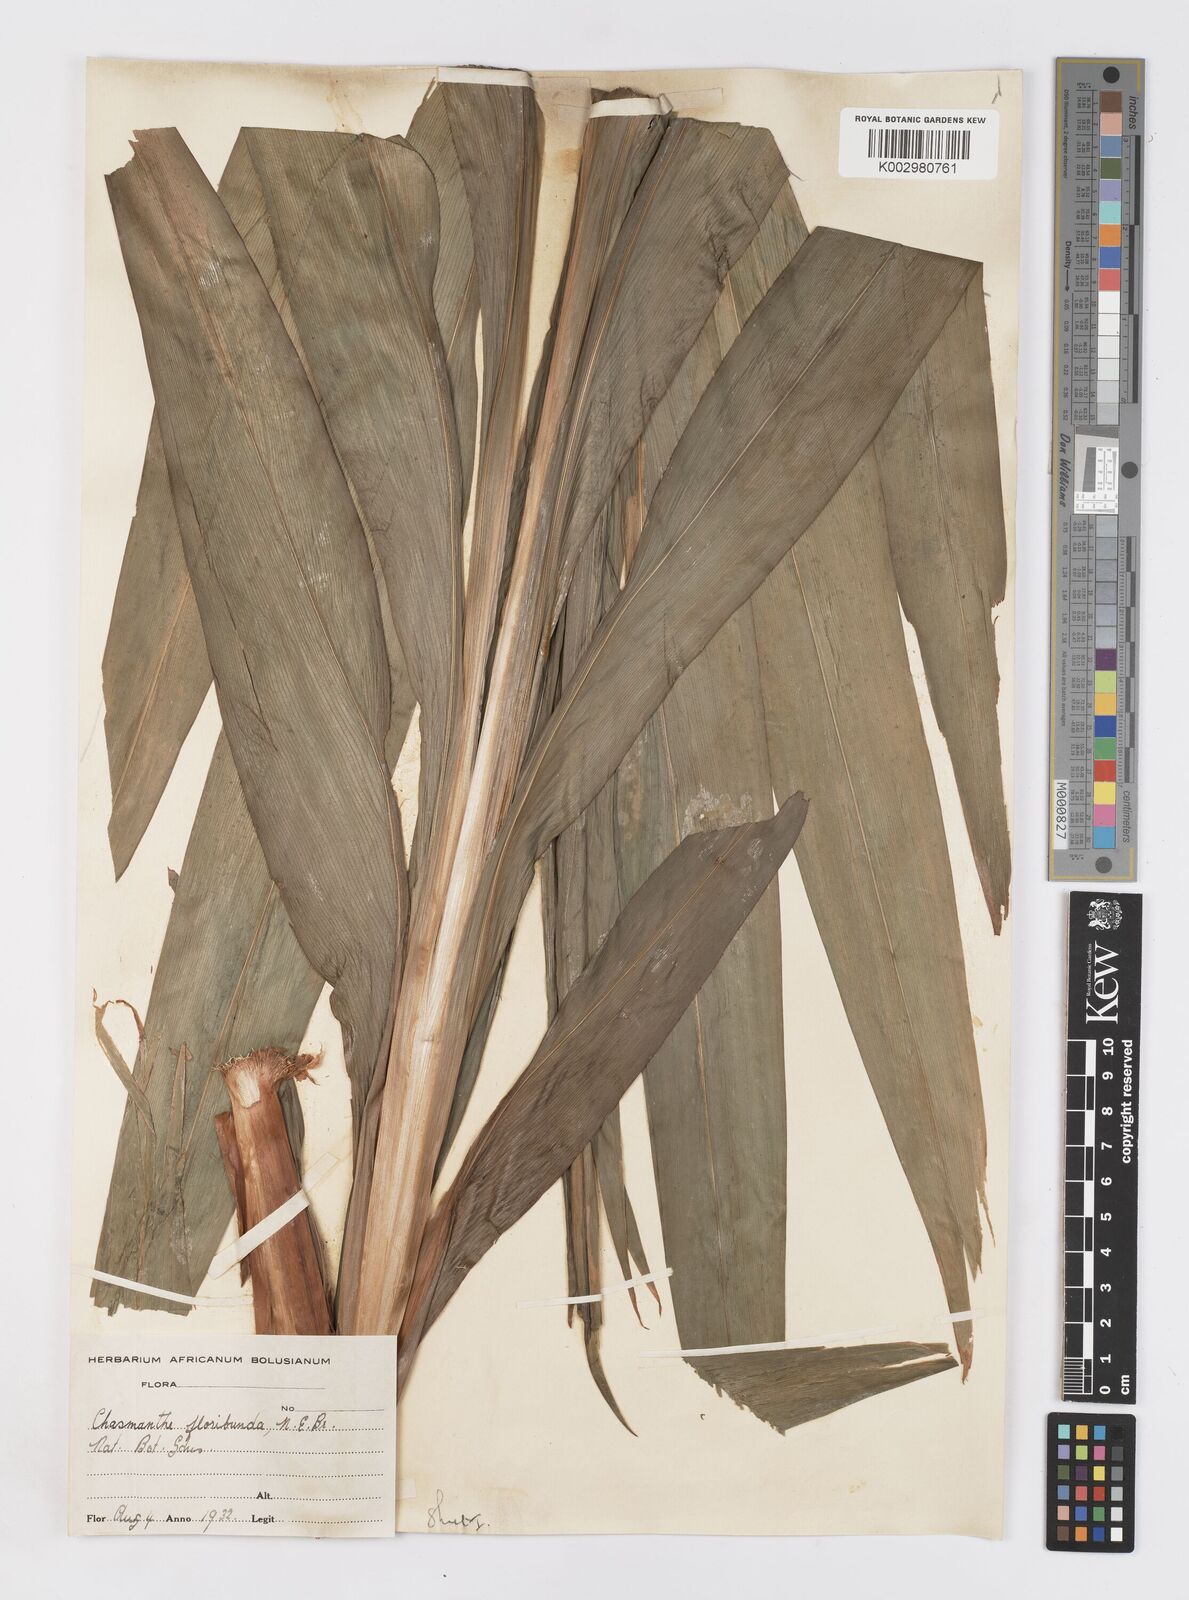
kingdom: Plantae
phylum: Tracheophyta
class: Liliopsida
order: Asparagales
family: Iridaceae
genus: Chasmanthe
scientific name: Chasmanthe floribunda
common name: African cornflag
